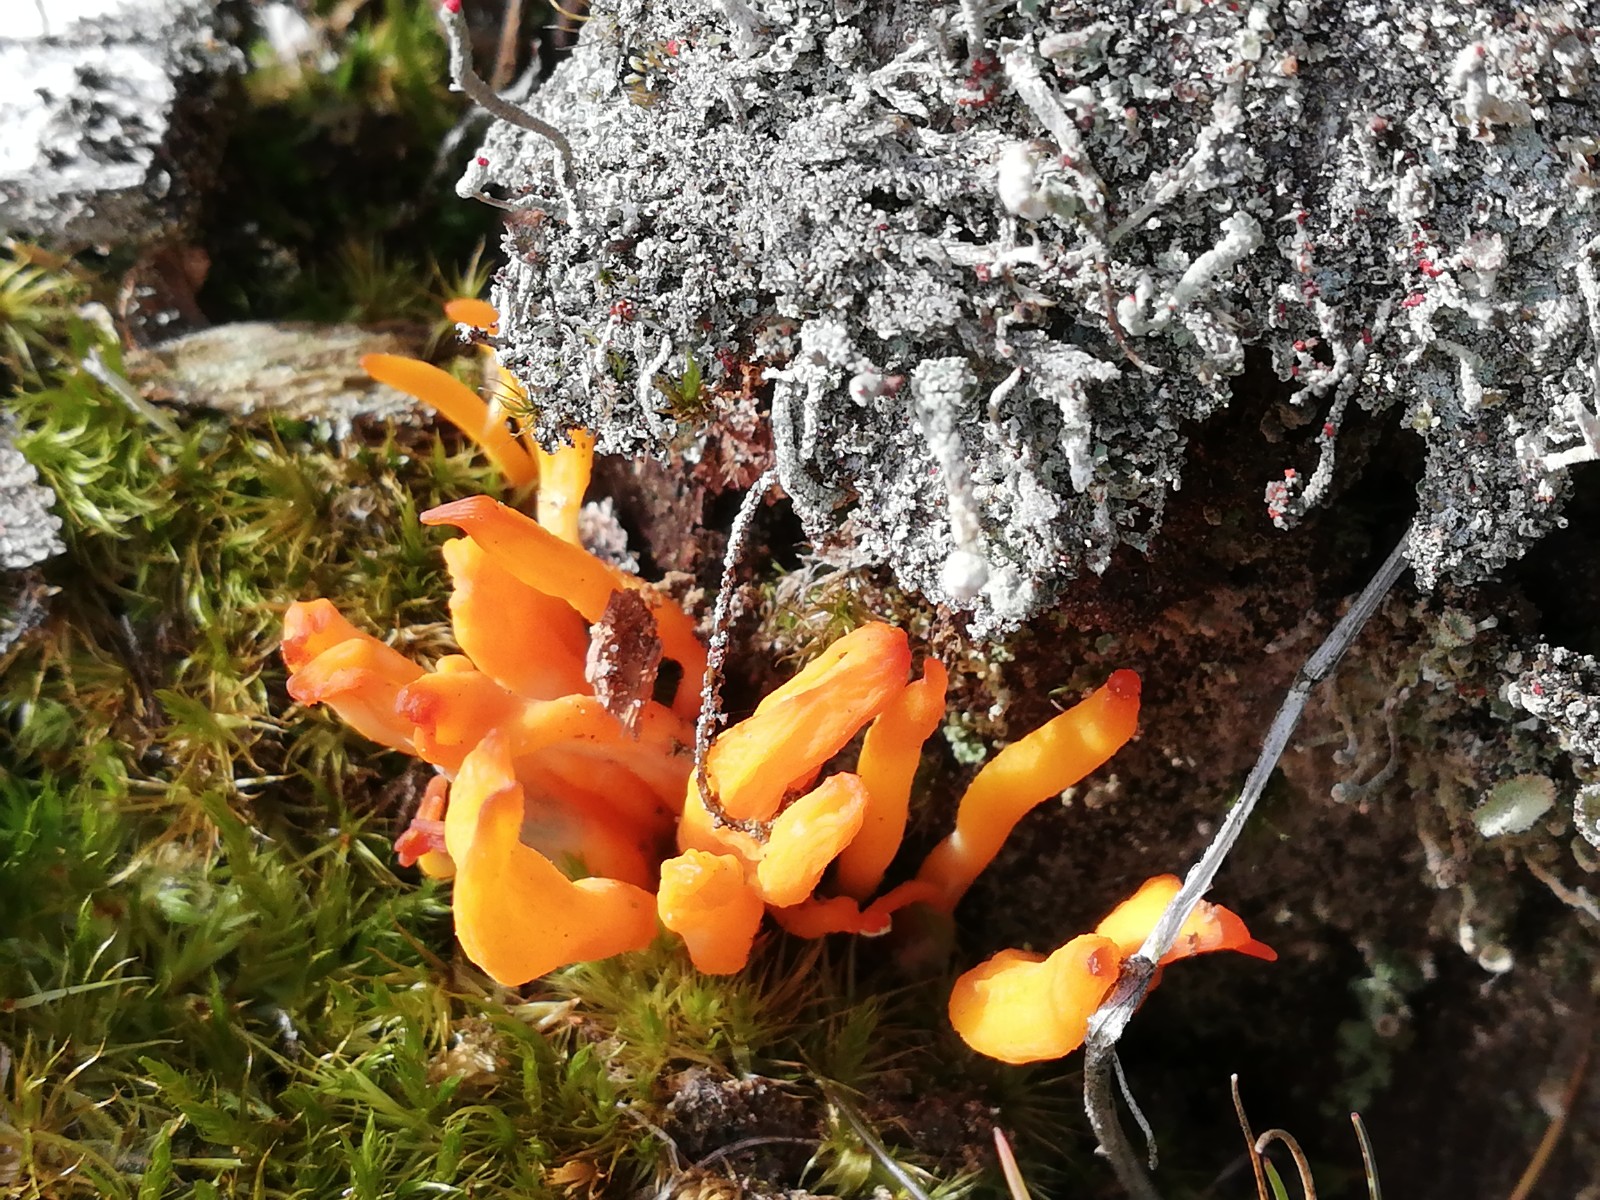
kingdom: Fungi
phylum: Basidiomycota
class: Dacrymycetes
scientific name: Dacrymycetes
